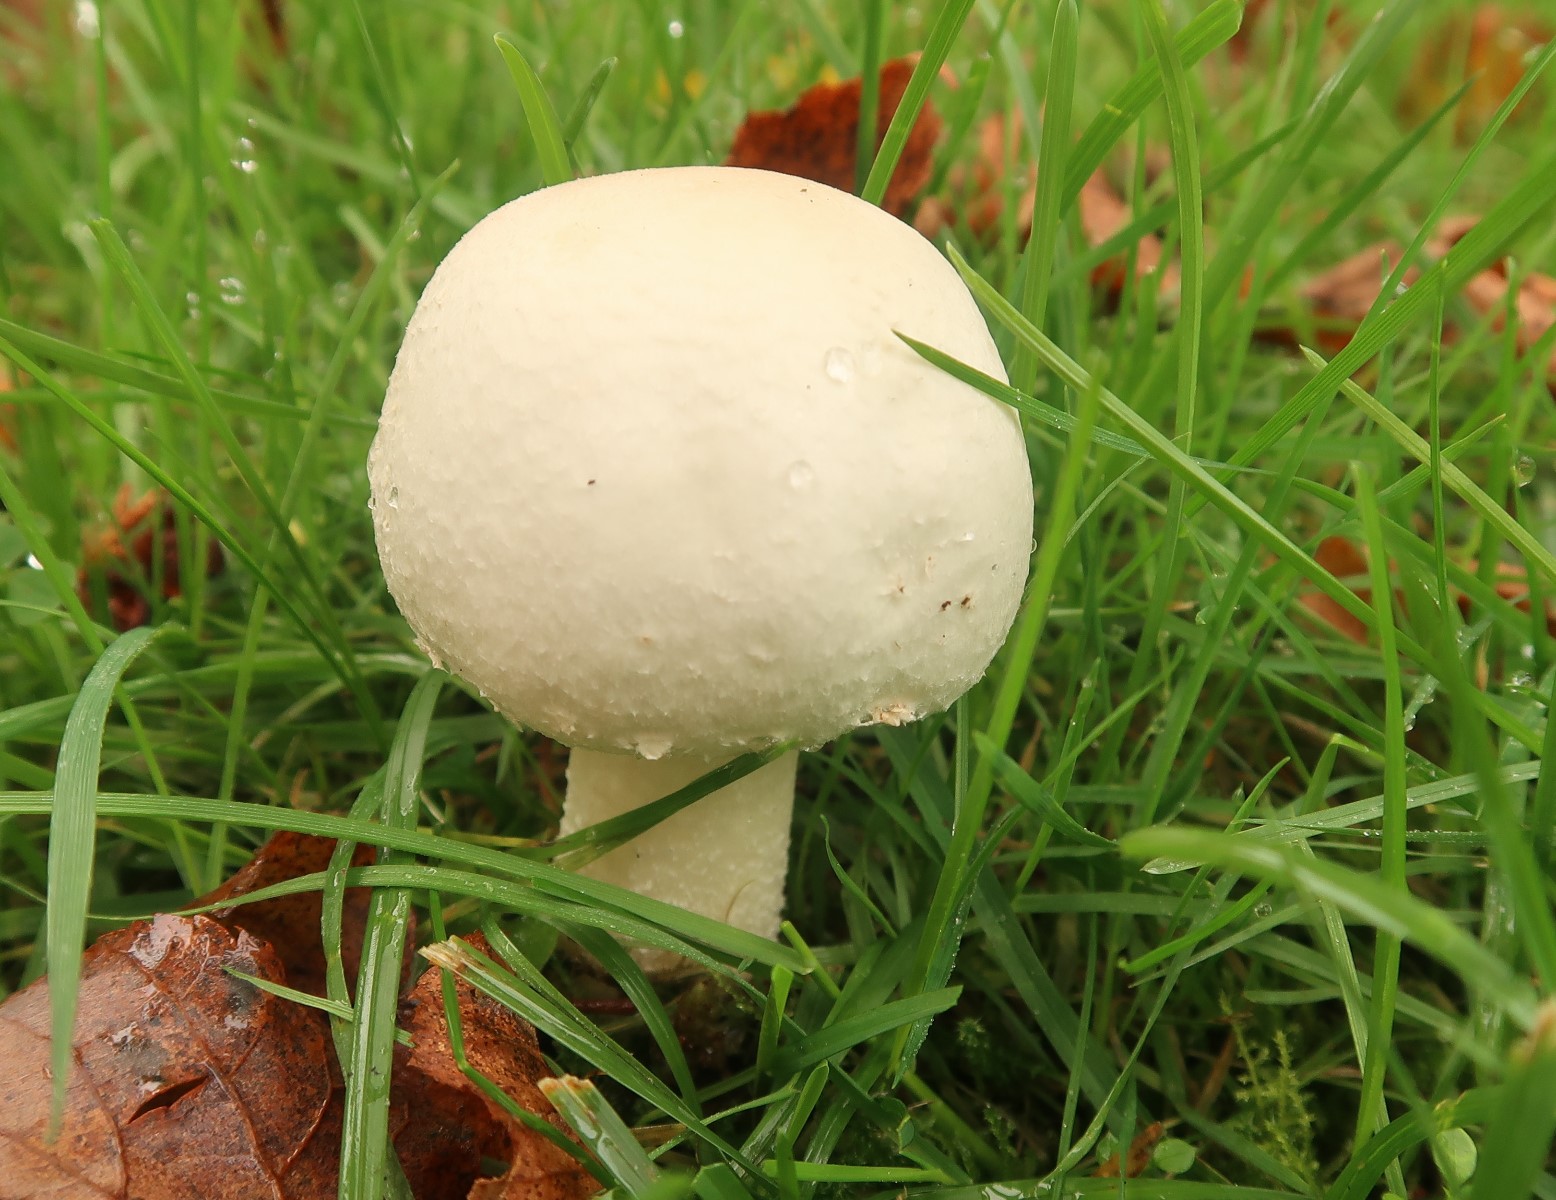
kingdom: Fungi
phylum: Basidiomycota
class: Agaricomycetes
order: Agaricales
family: Agaricaceae
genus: Agaricus
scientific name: Agaricus
